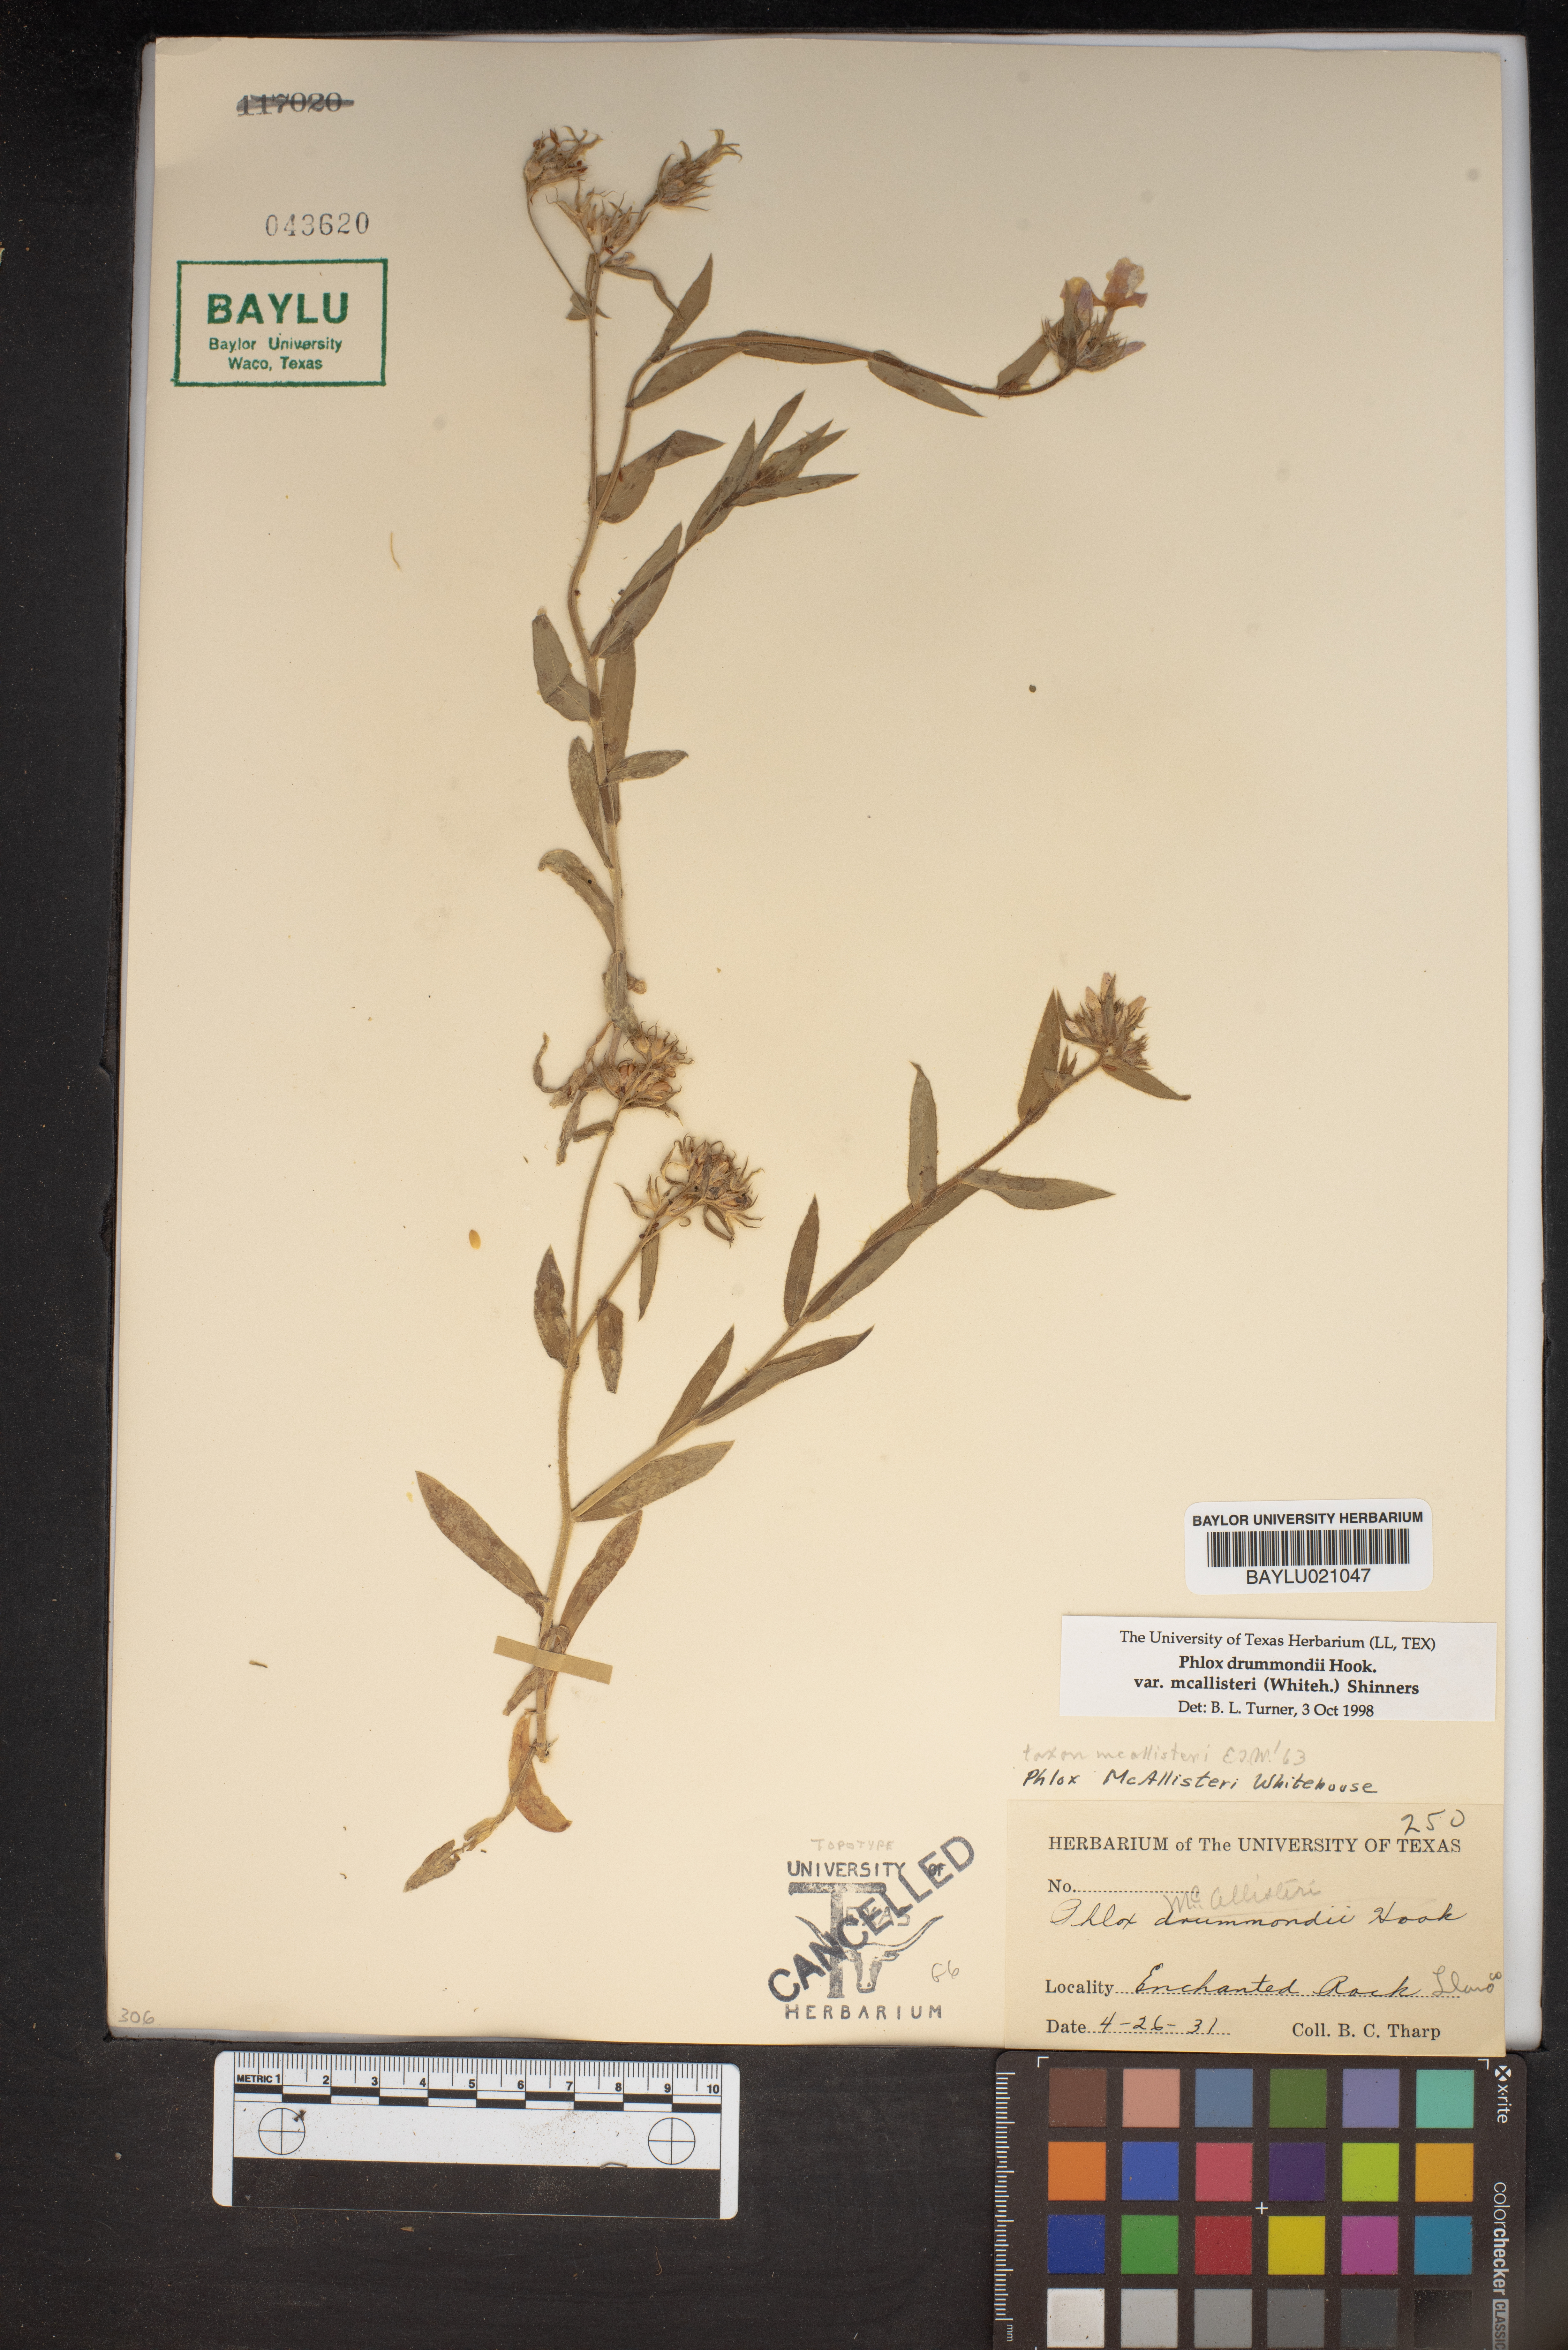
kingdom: Plantae
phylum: Tracheophyta
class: Magnoliopsida
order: Ericales
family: Polemoniaceae
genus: Phlox
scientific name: Phlox drummondii
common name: Drummond's phlox
